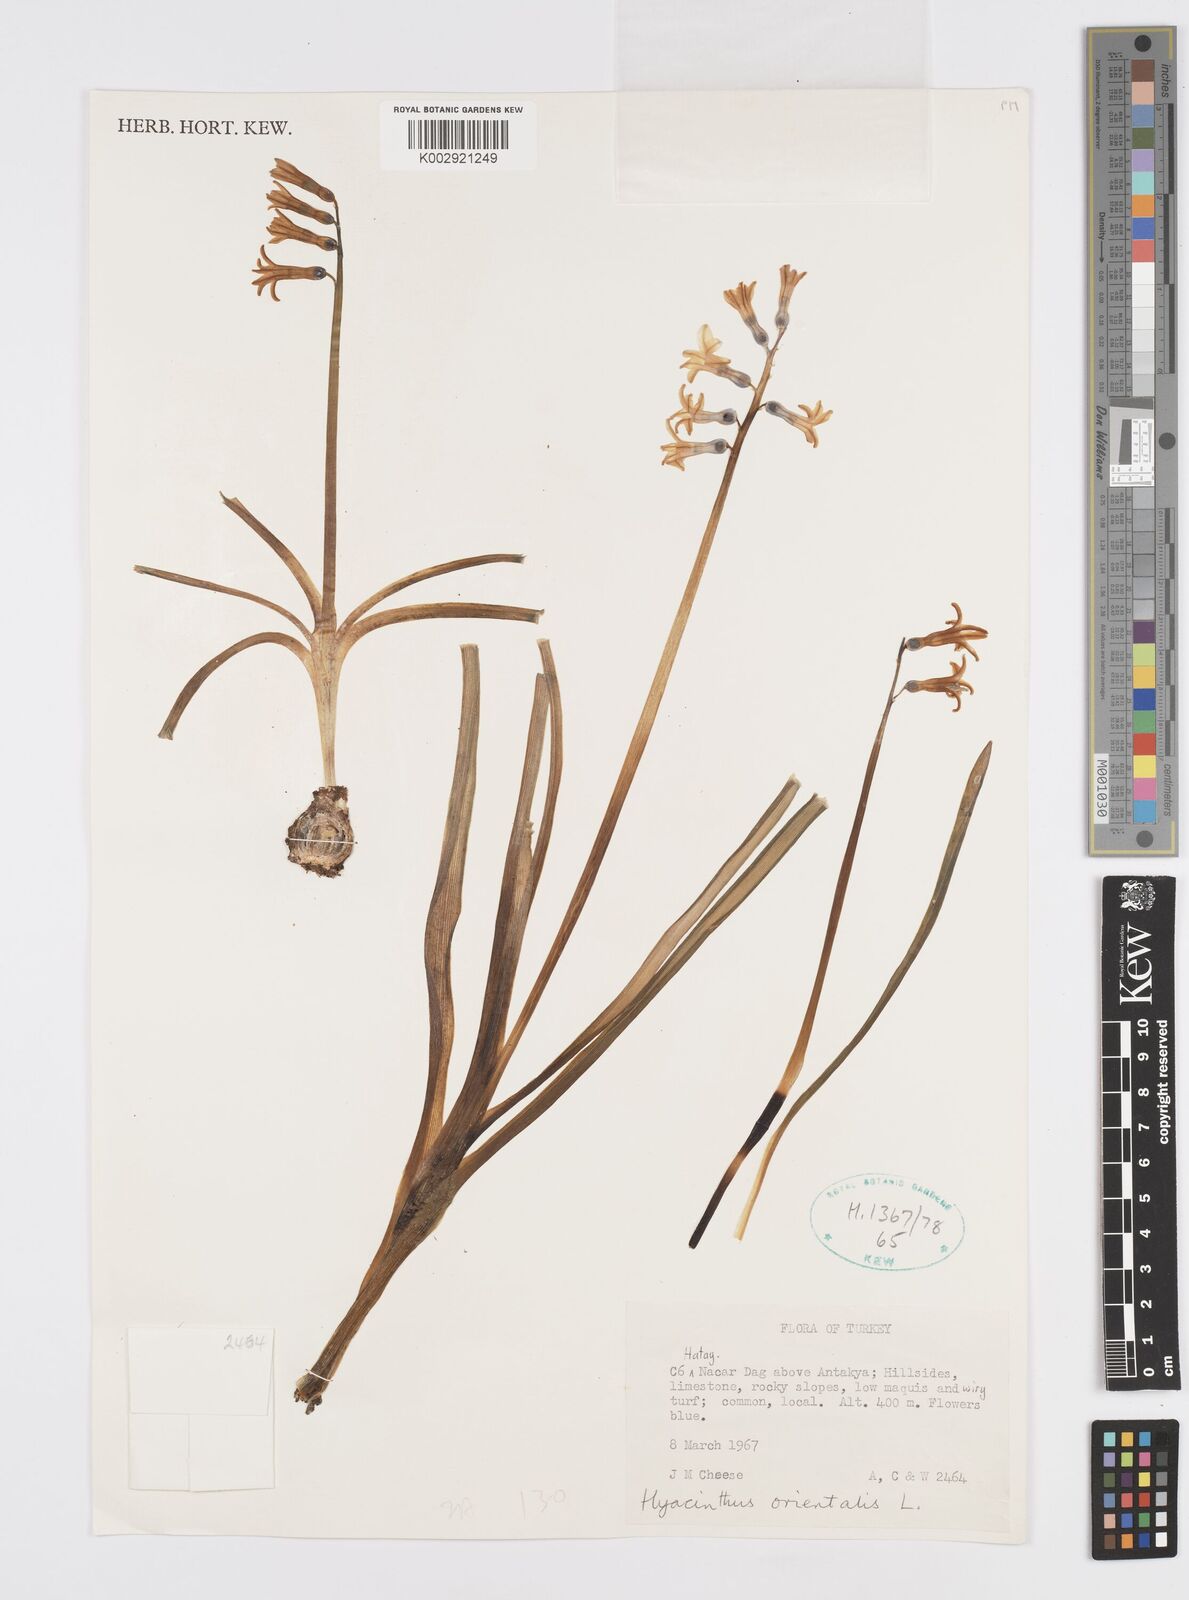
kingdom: Plantae
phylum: Tracheophyta
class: Liliopsida
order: Asparagales
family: Asparagaceae
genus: Hyacinthus
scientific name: Hyacinthus orientalis
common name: Hyacinth
